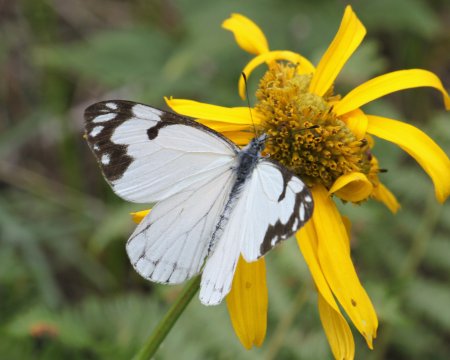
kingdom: Animalia
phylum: Arthropoda
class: Insecta
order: Lepidoptera
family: Pieridae
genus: Neophasia
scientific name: Neophasia menapia
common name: Pine White
